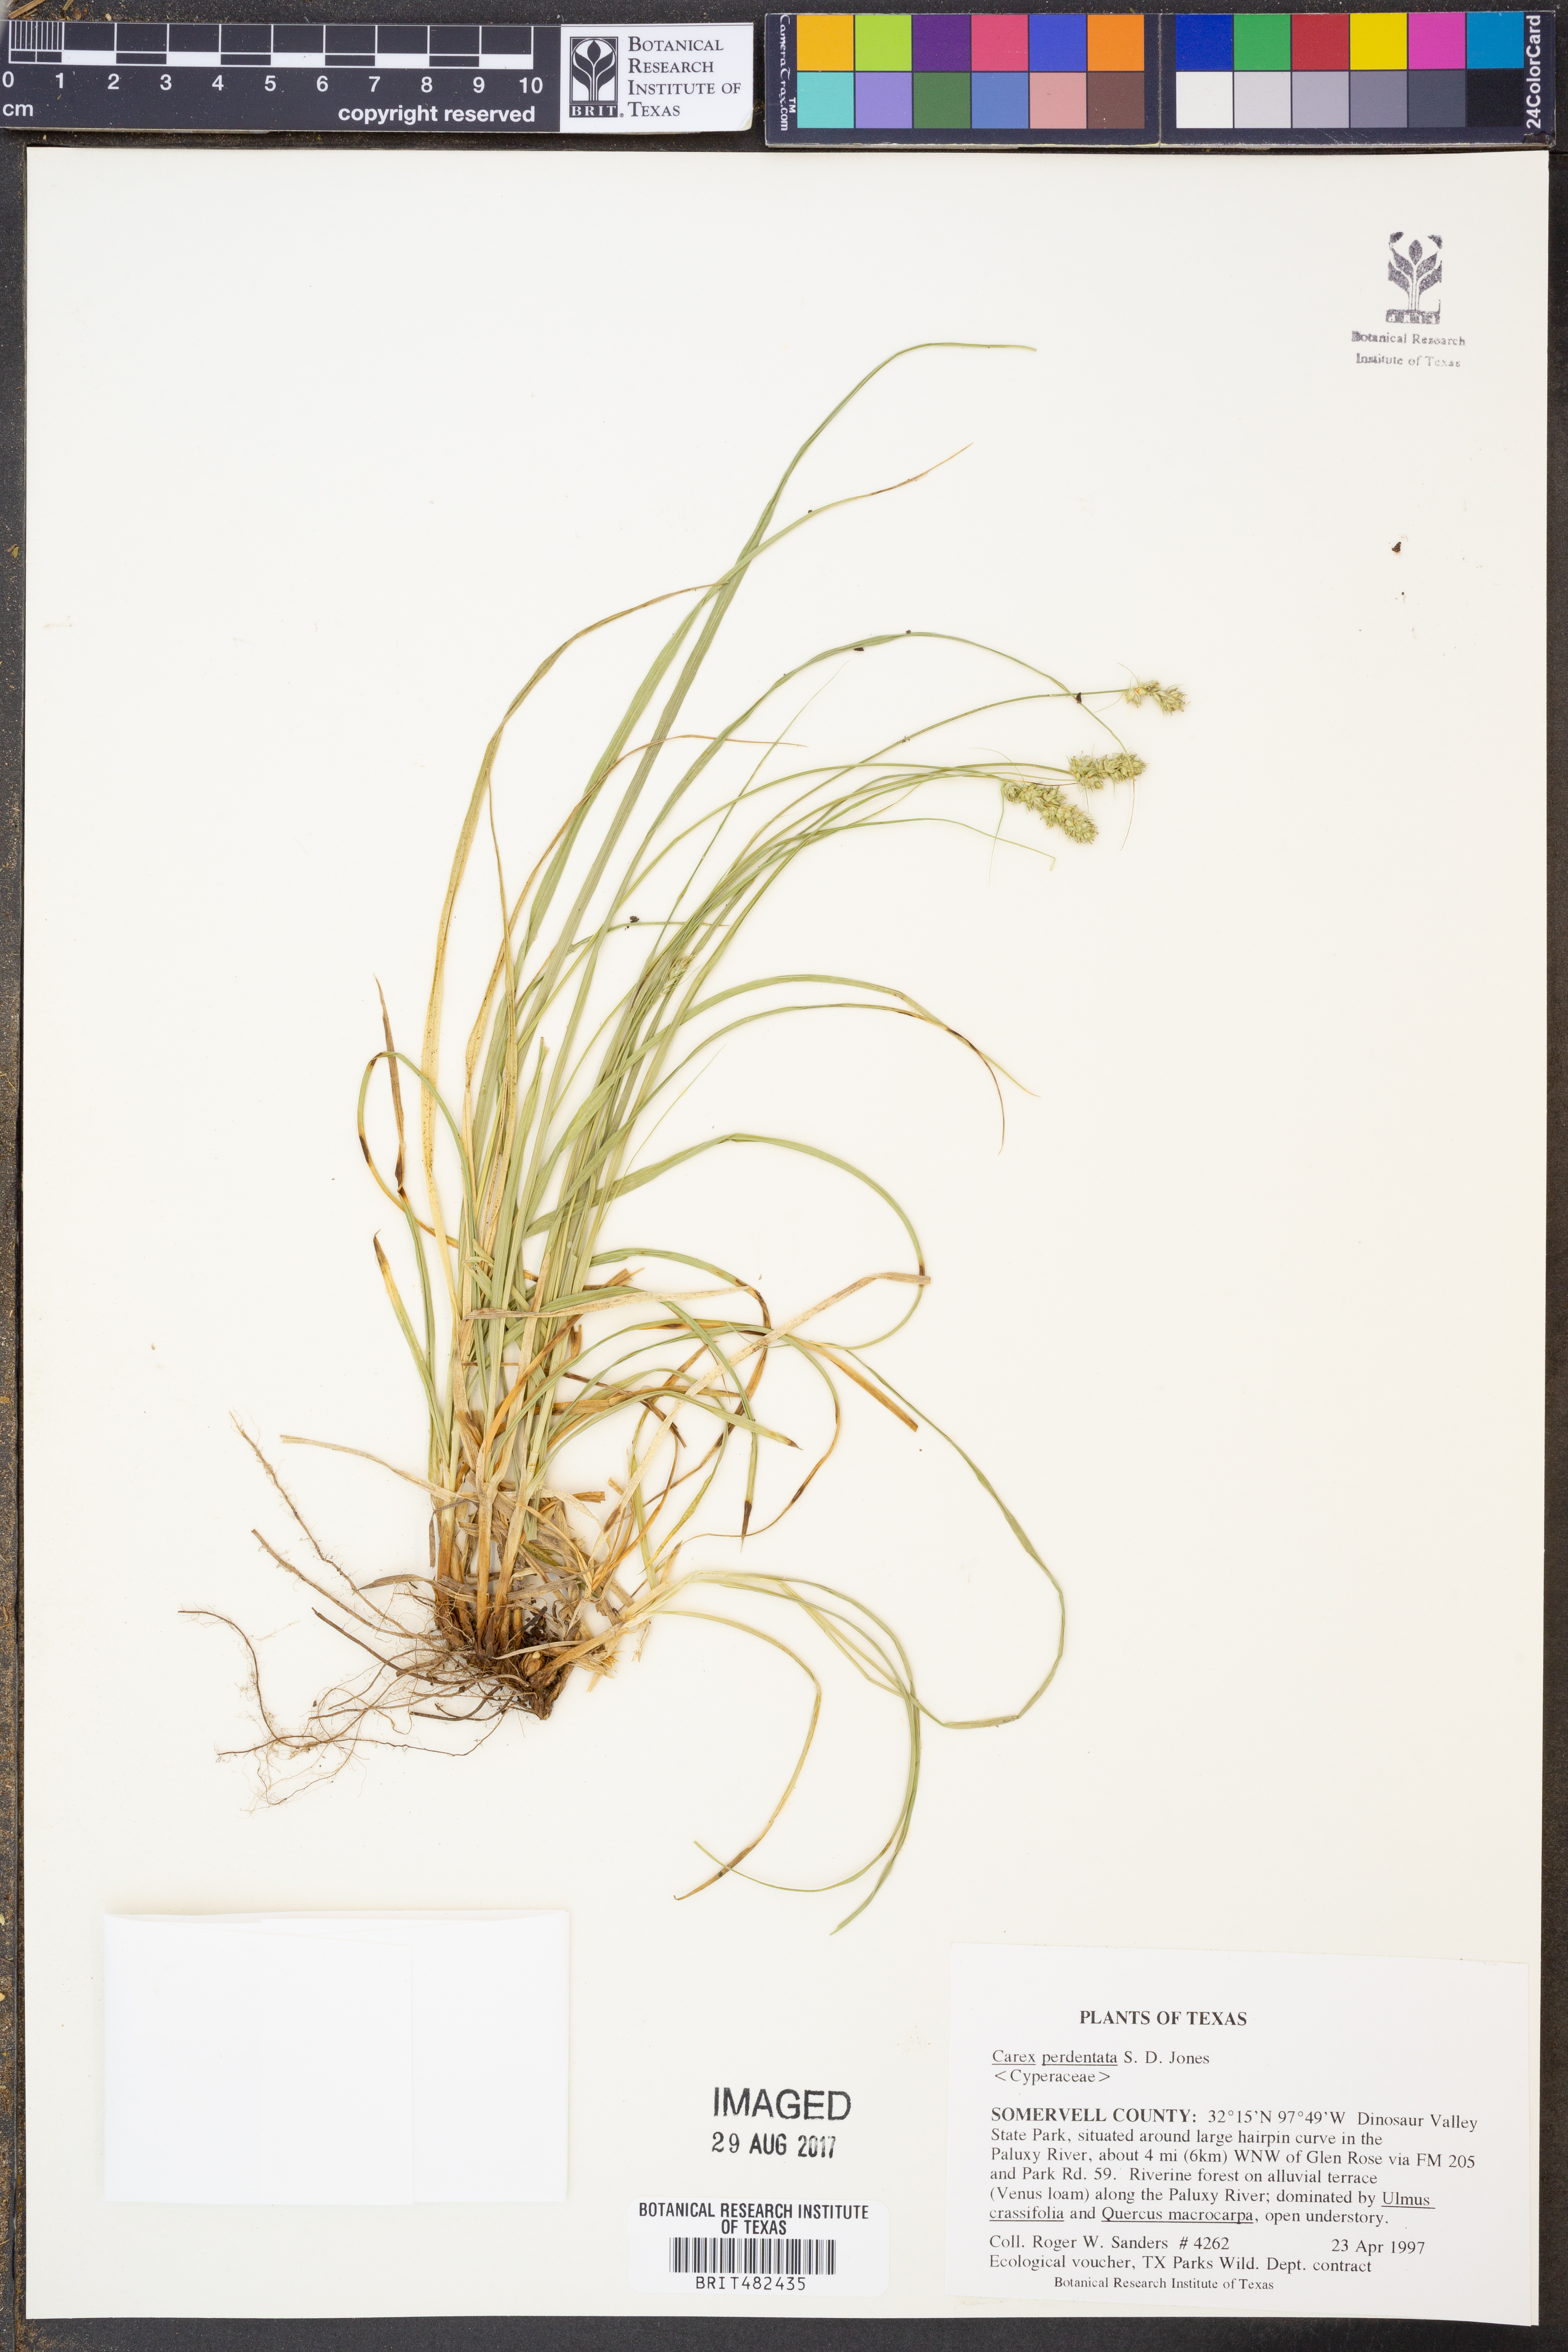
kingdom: Plantae
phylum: Tracheophyta
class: Liliopsida
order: Poales
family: Cyperaceae
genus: Carex
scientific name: Carex perdentata
